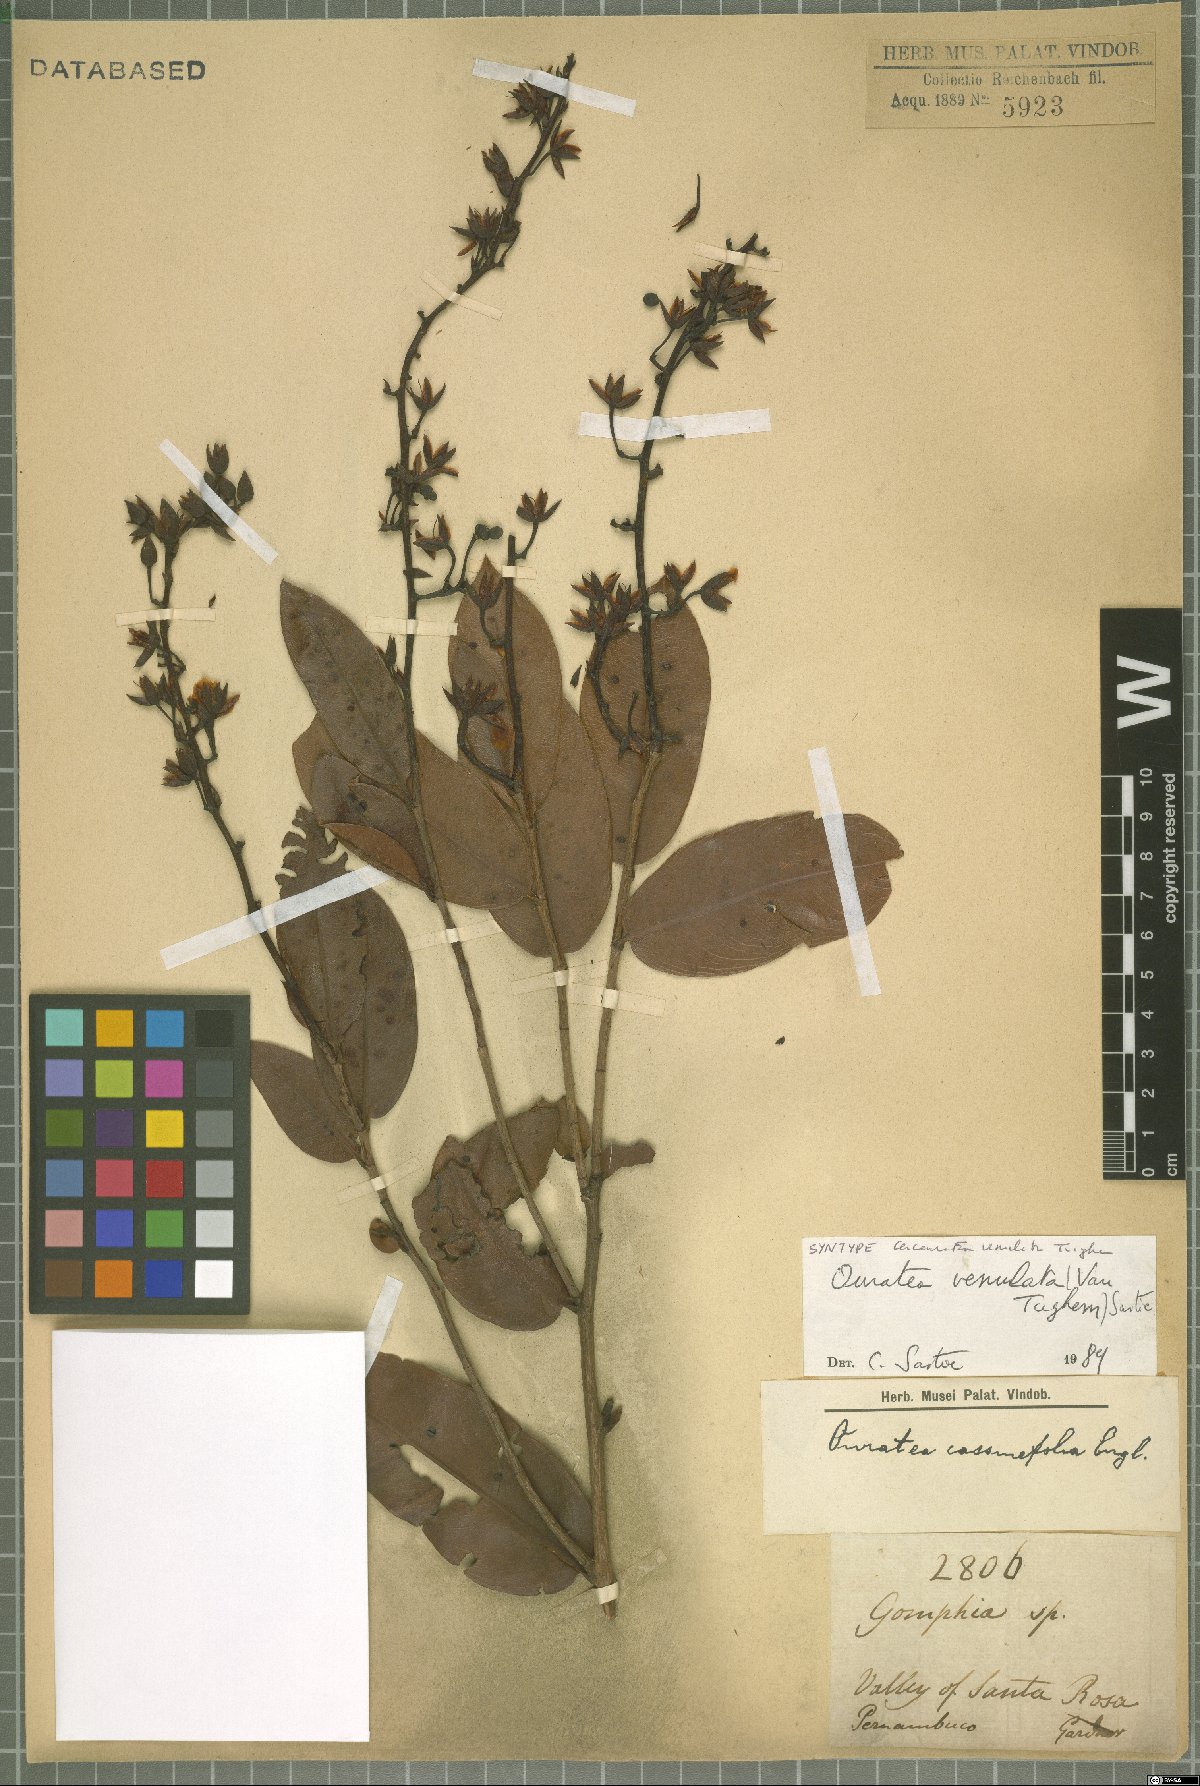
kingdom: Plantae
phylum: Tracheophyta
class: Magnoliopsida
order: Malpighiales
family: Ochnaceae
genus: Ouratea
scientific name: Ouratea venulata
